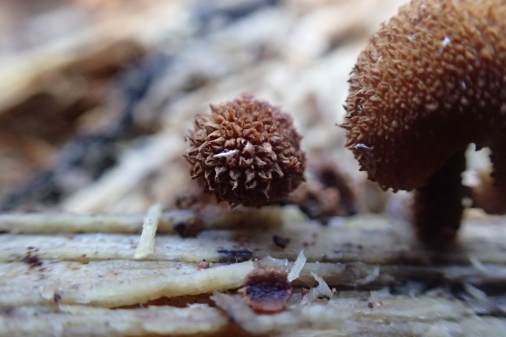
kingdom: Fungi
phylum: Basidiomycota
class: Agaricomycetes
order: Agaricales
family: Tubariaceae
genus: Flammulaster
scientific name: Flammulaster muricatus
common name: pigget grynskælhat
